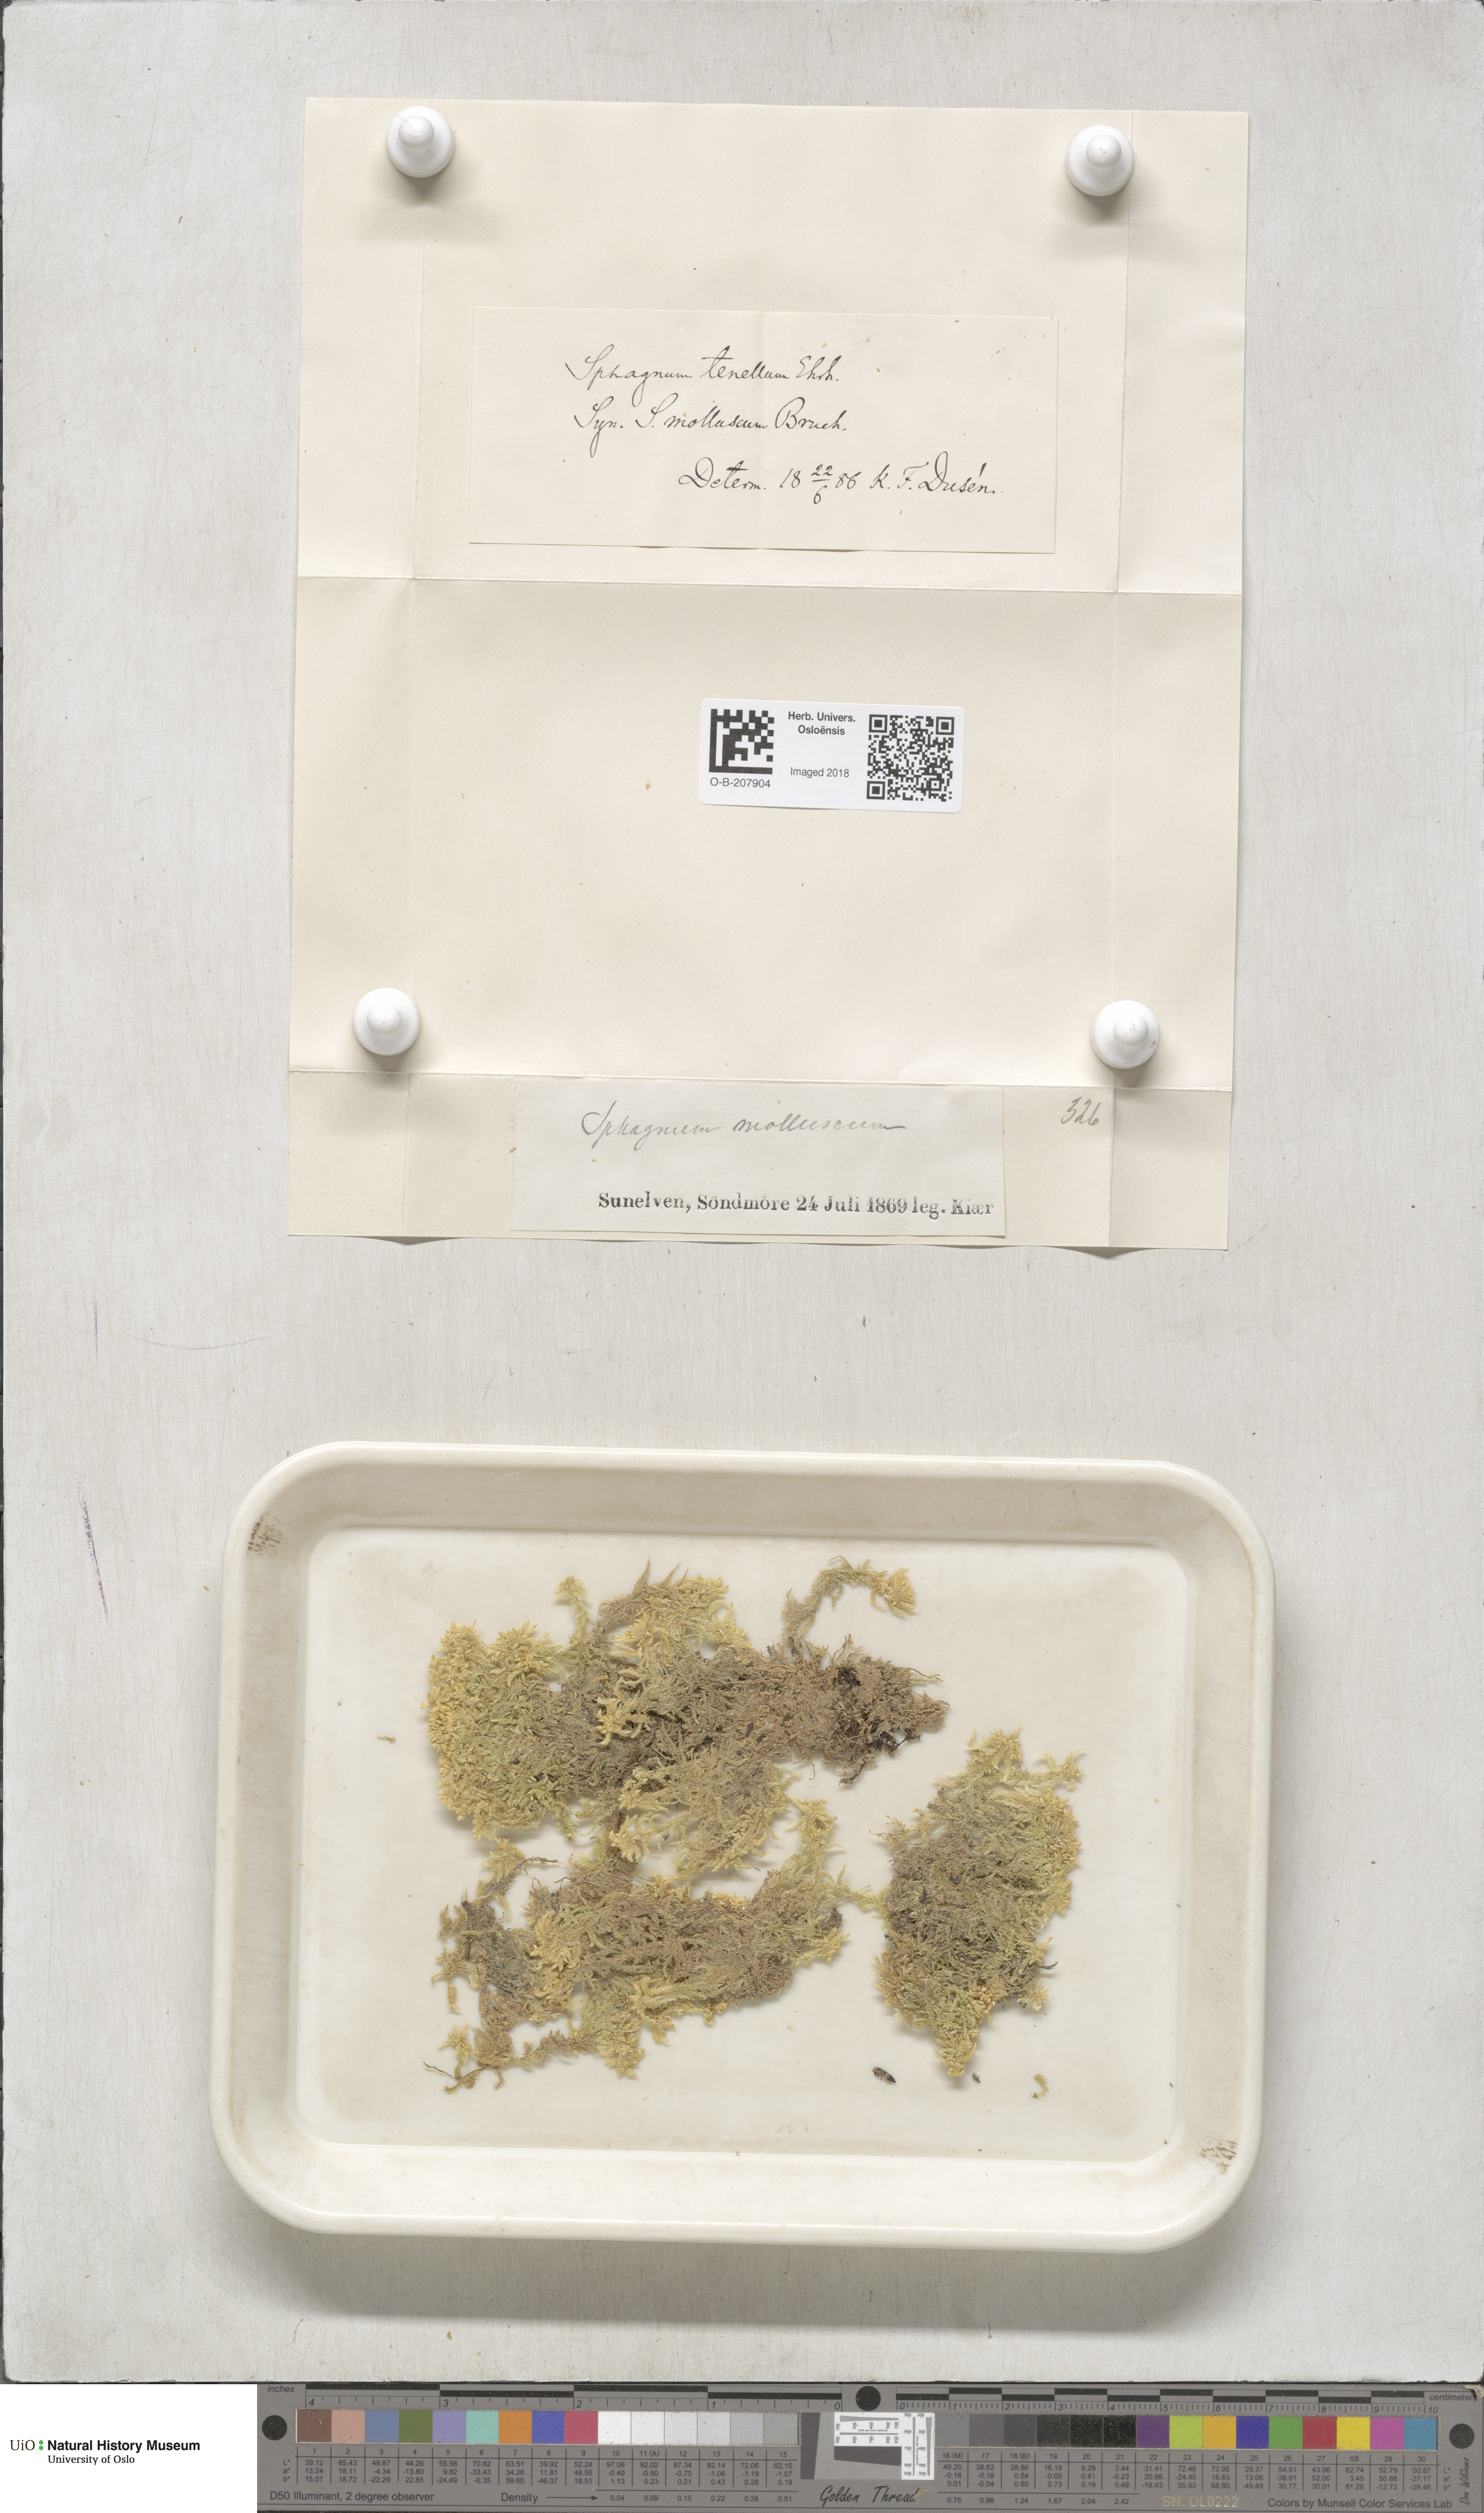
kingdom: Plantae
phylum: Bryophyta
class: Sphagnopsida
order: Sphagnales
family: Sphagnaceae
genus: Sphagnum
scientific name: Sphagnum tenellum
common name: Soft bog-moss
